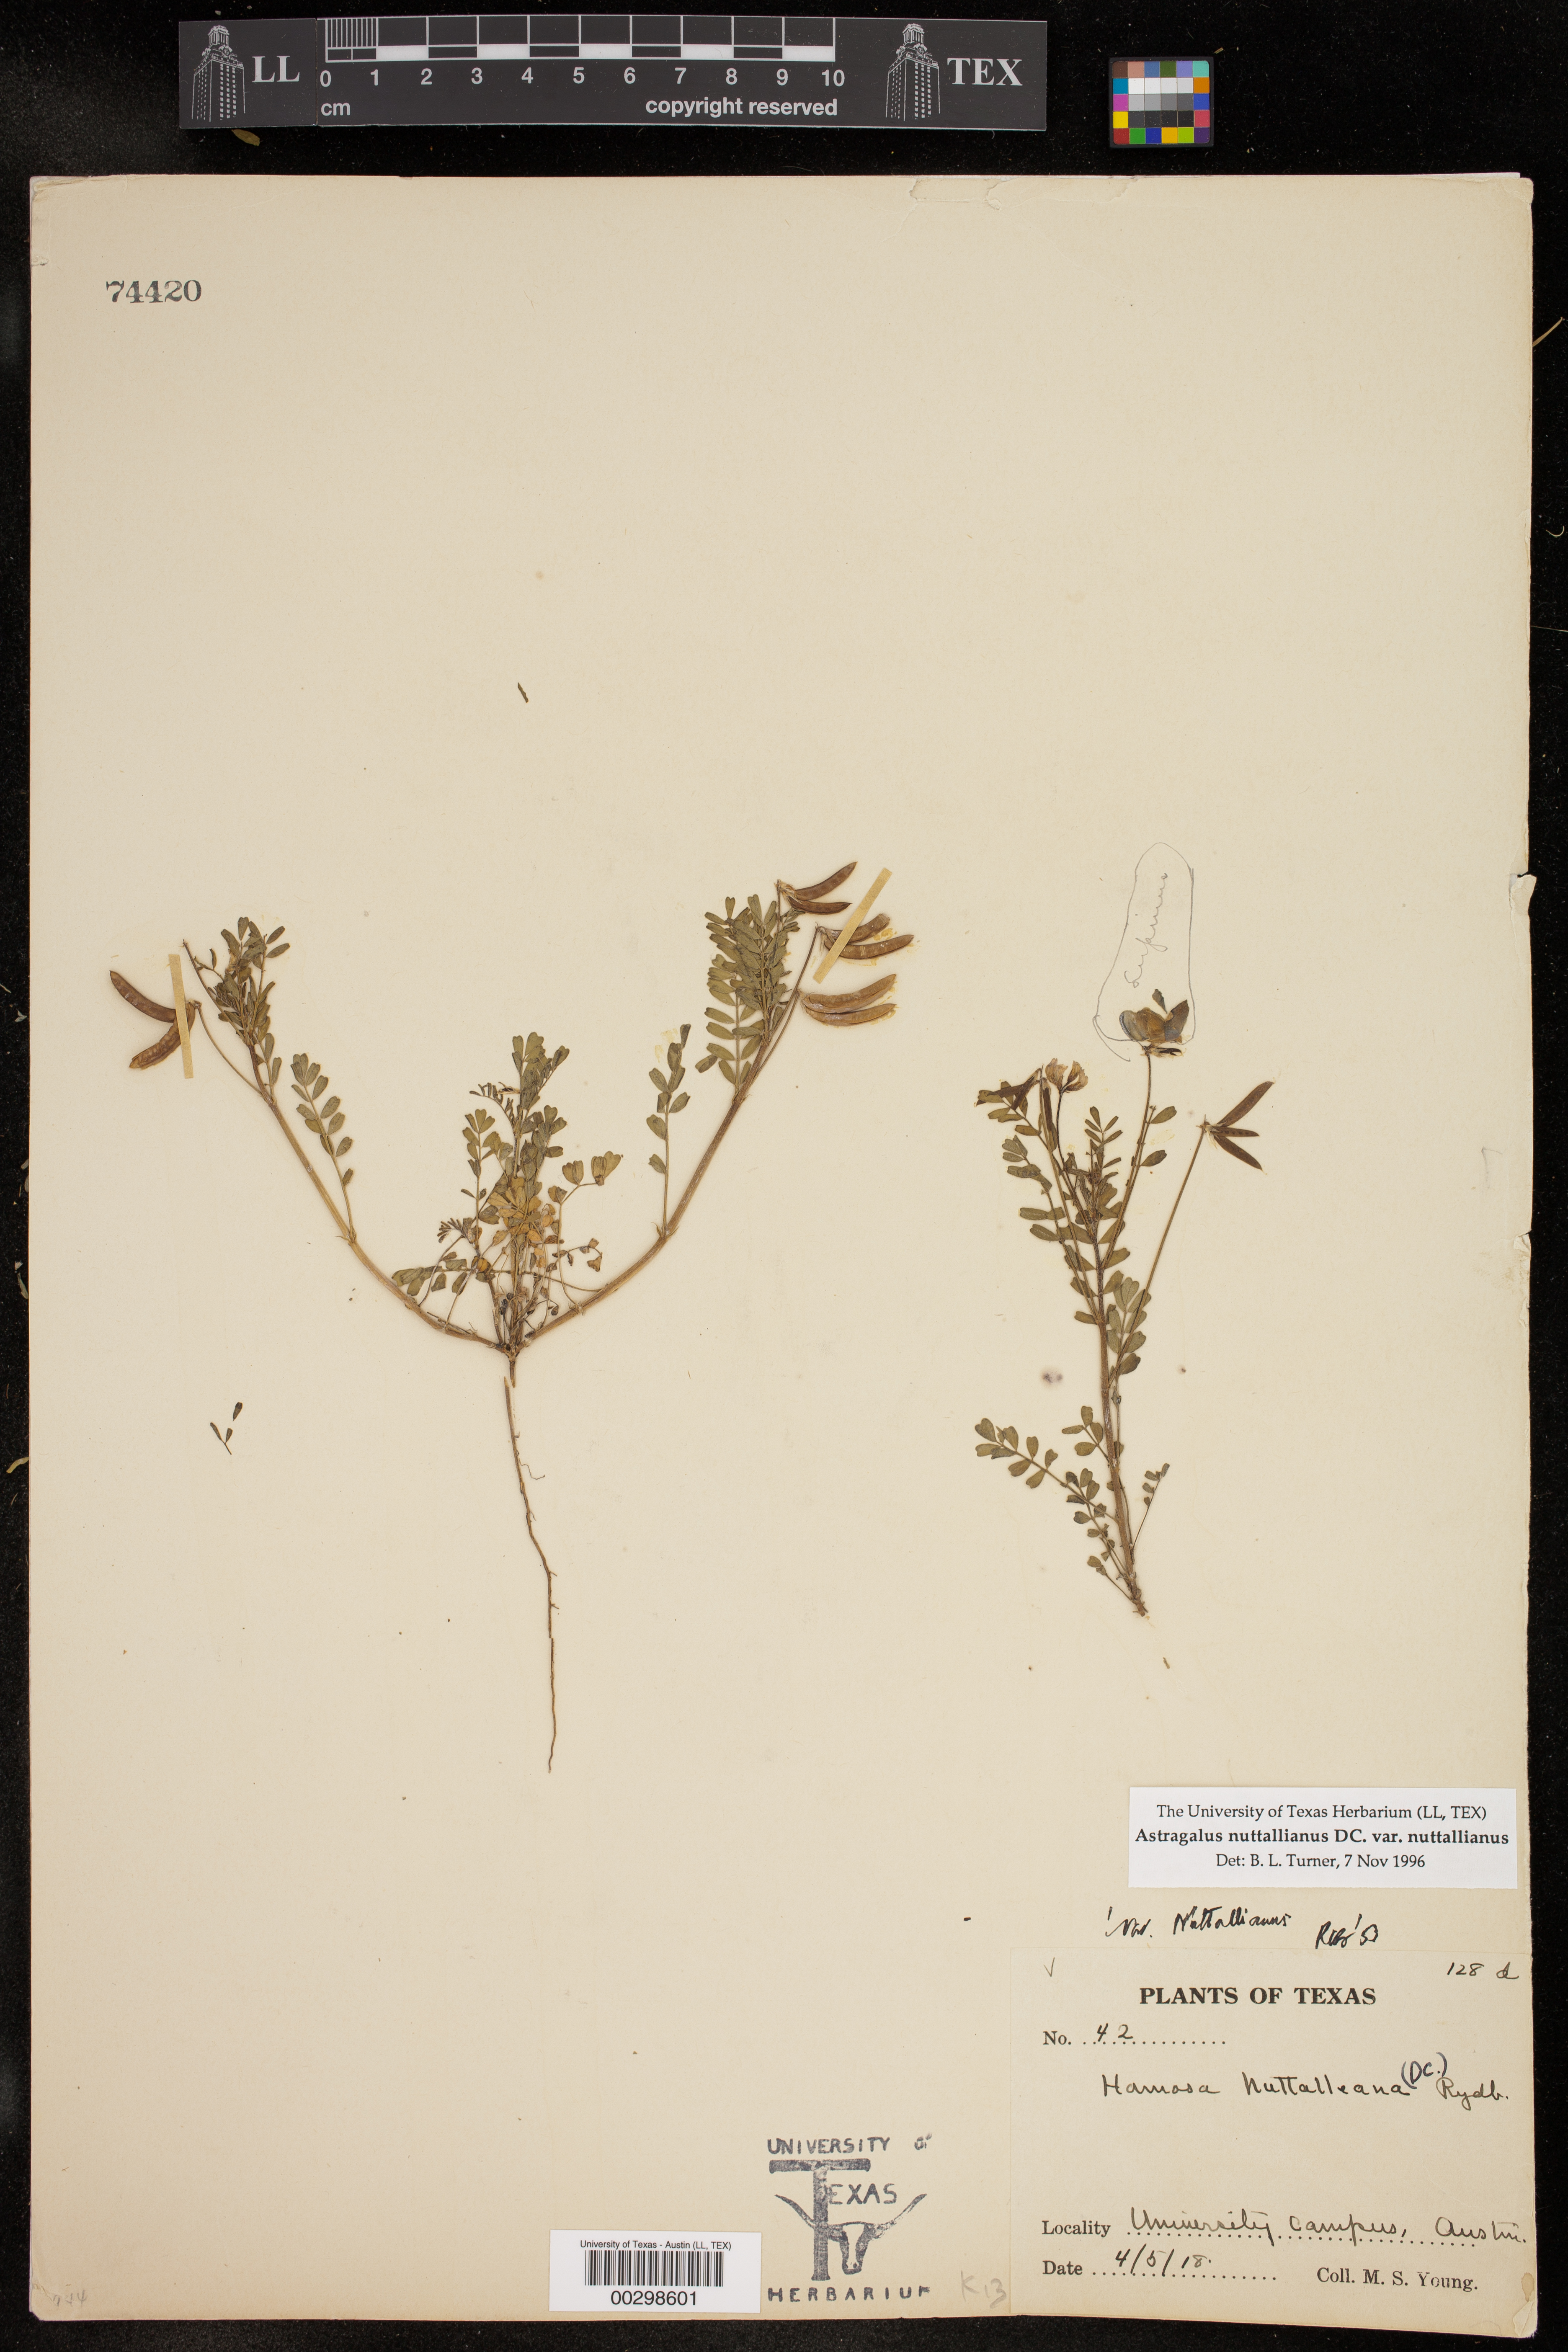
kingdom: Plantae
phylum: Tracheophyta
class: Magnoliopsida
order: Fabales
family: Fabaceae
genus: Astragalus
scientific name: Astragalus nuttallianus
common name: Smallflowered milkvetch
